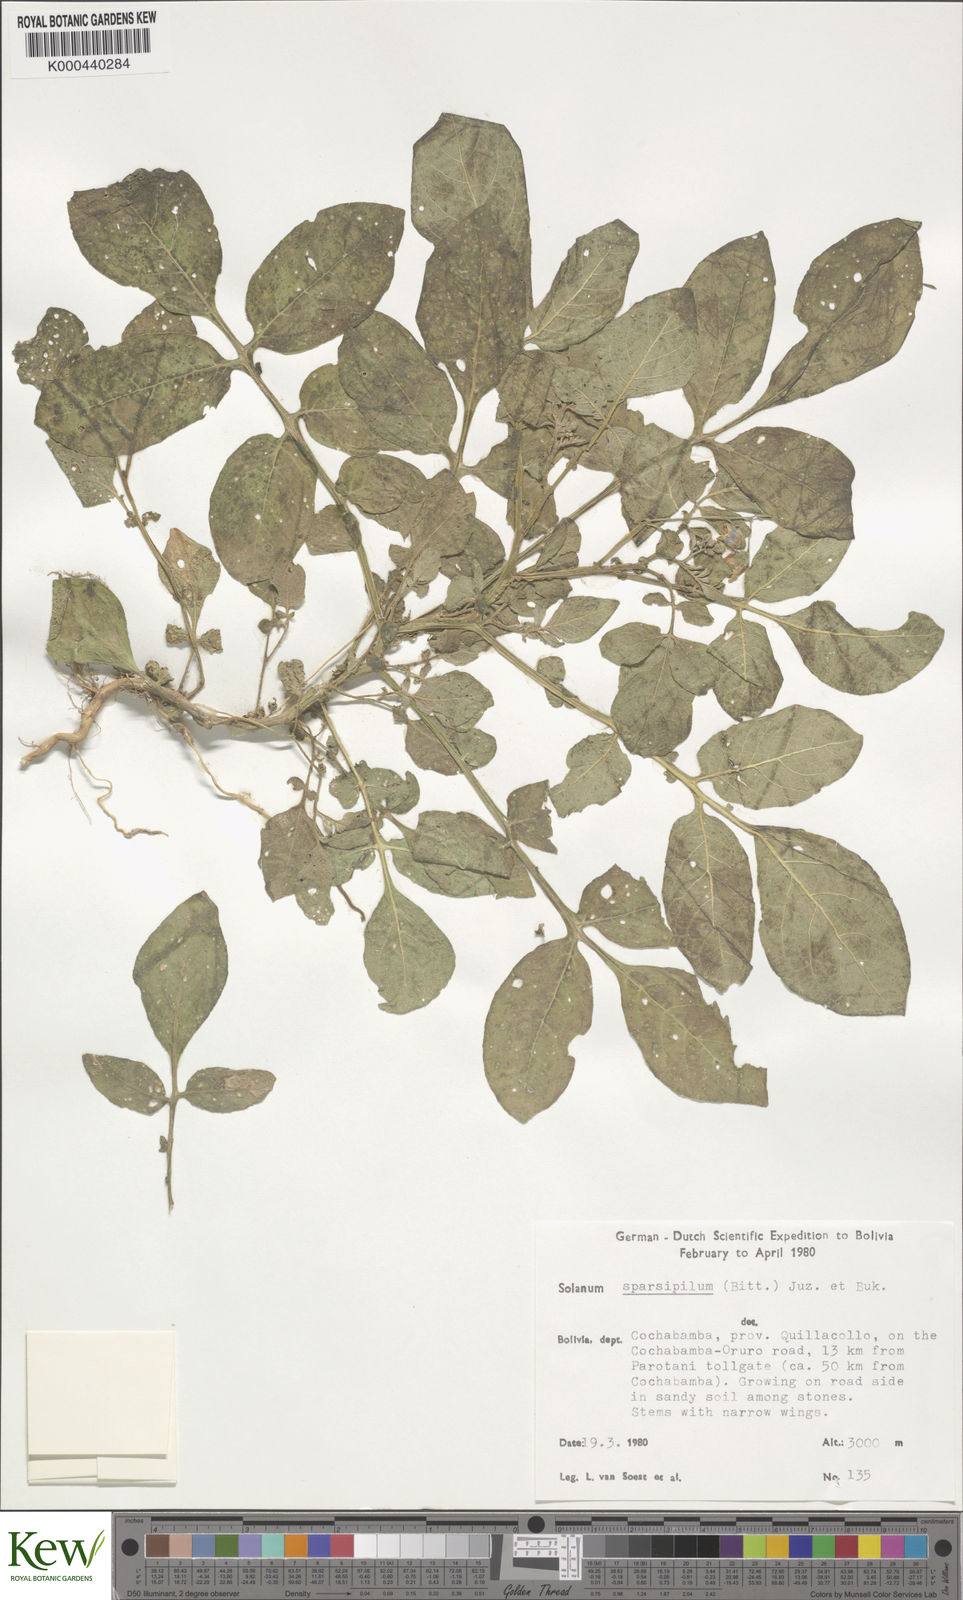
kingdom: Plantae
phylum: Tracheophyta
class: Magnoliopsida
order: Solanales
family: Solanaceae
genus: Solanum
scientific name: Solanum brevicaule
